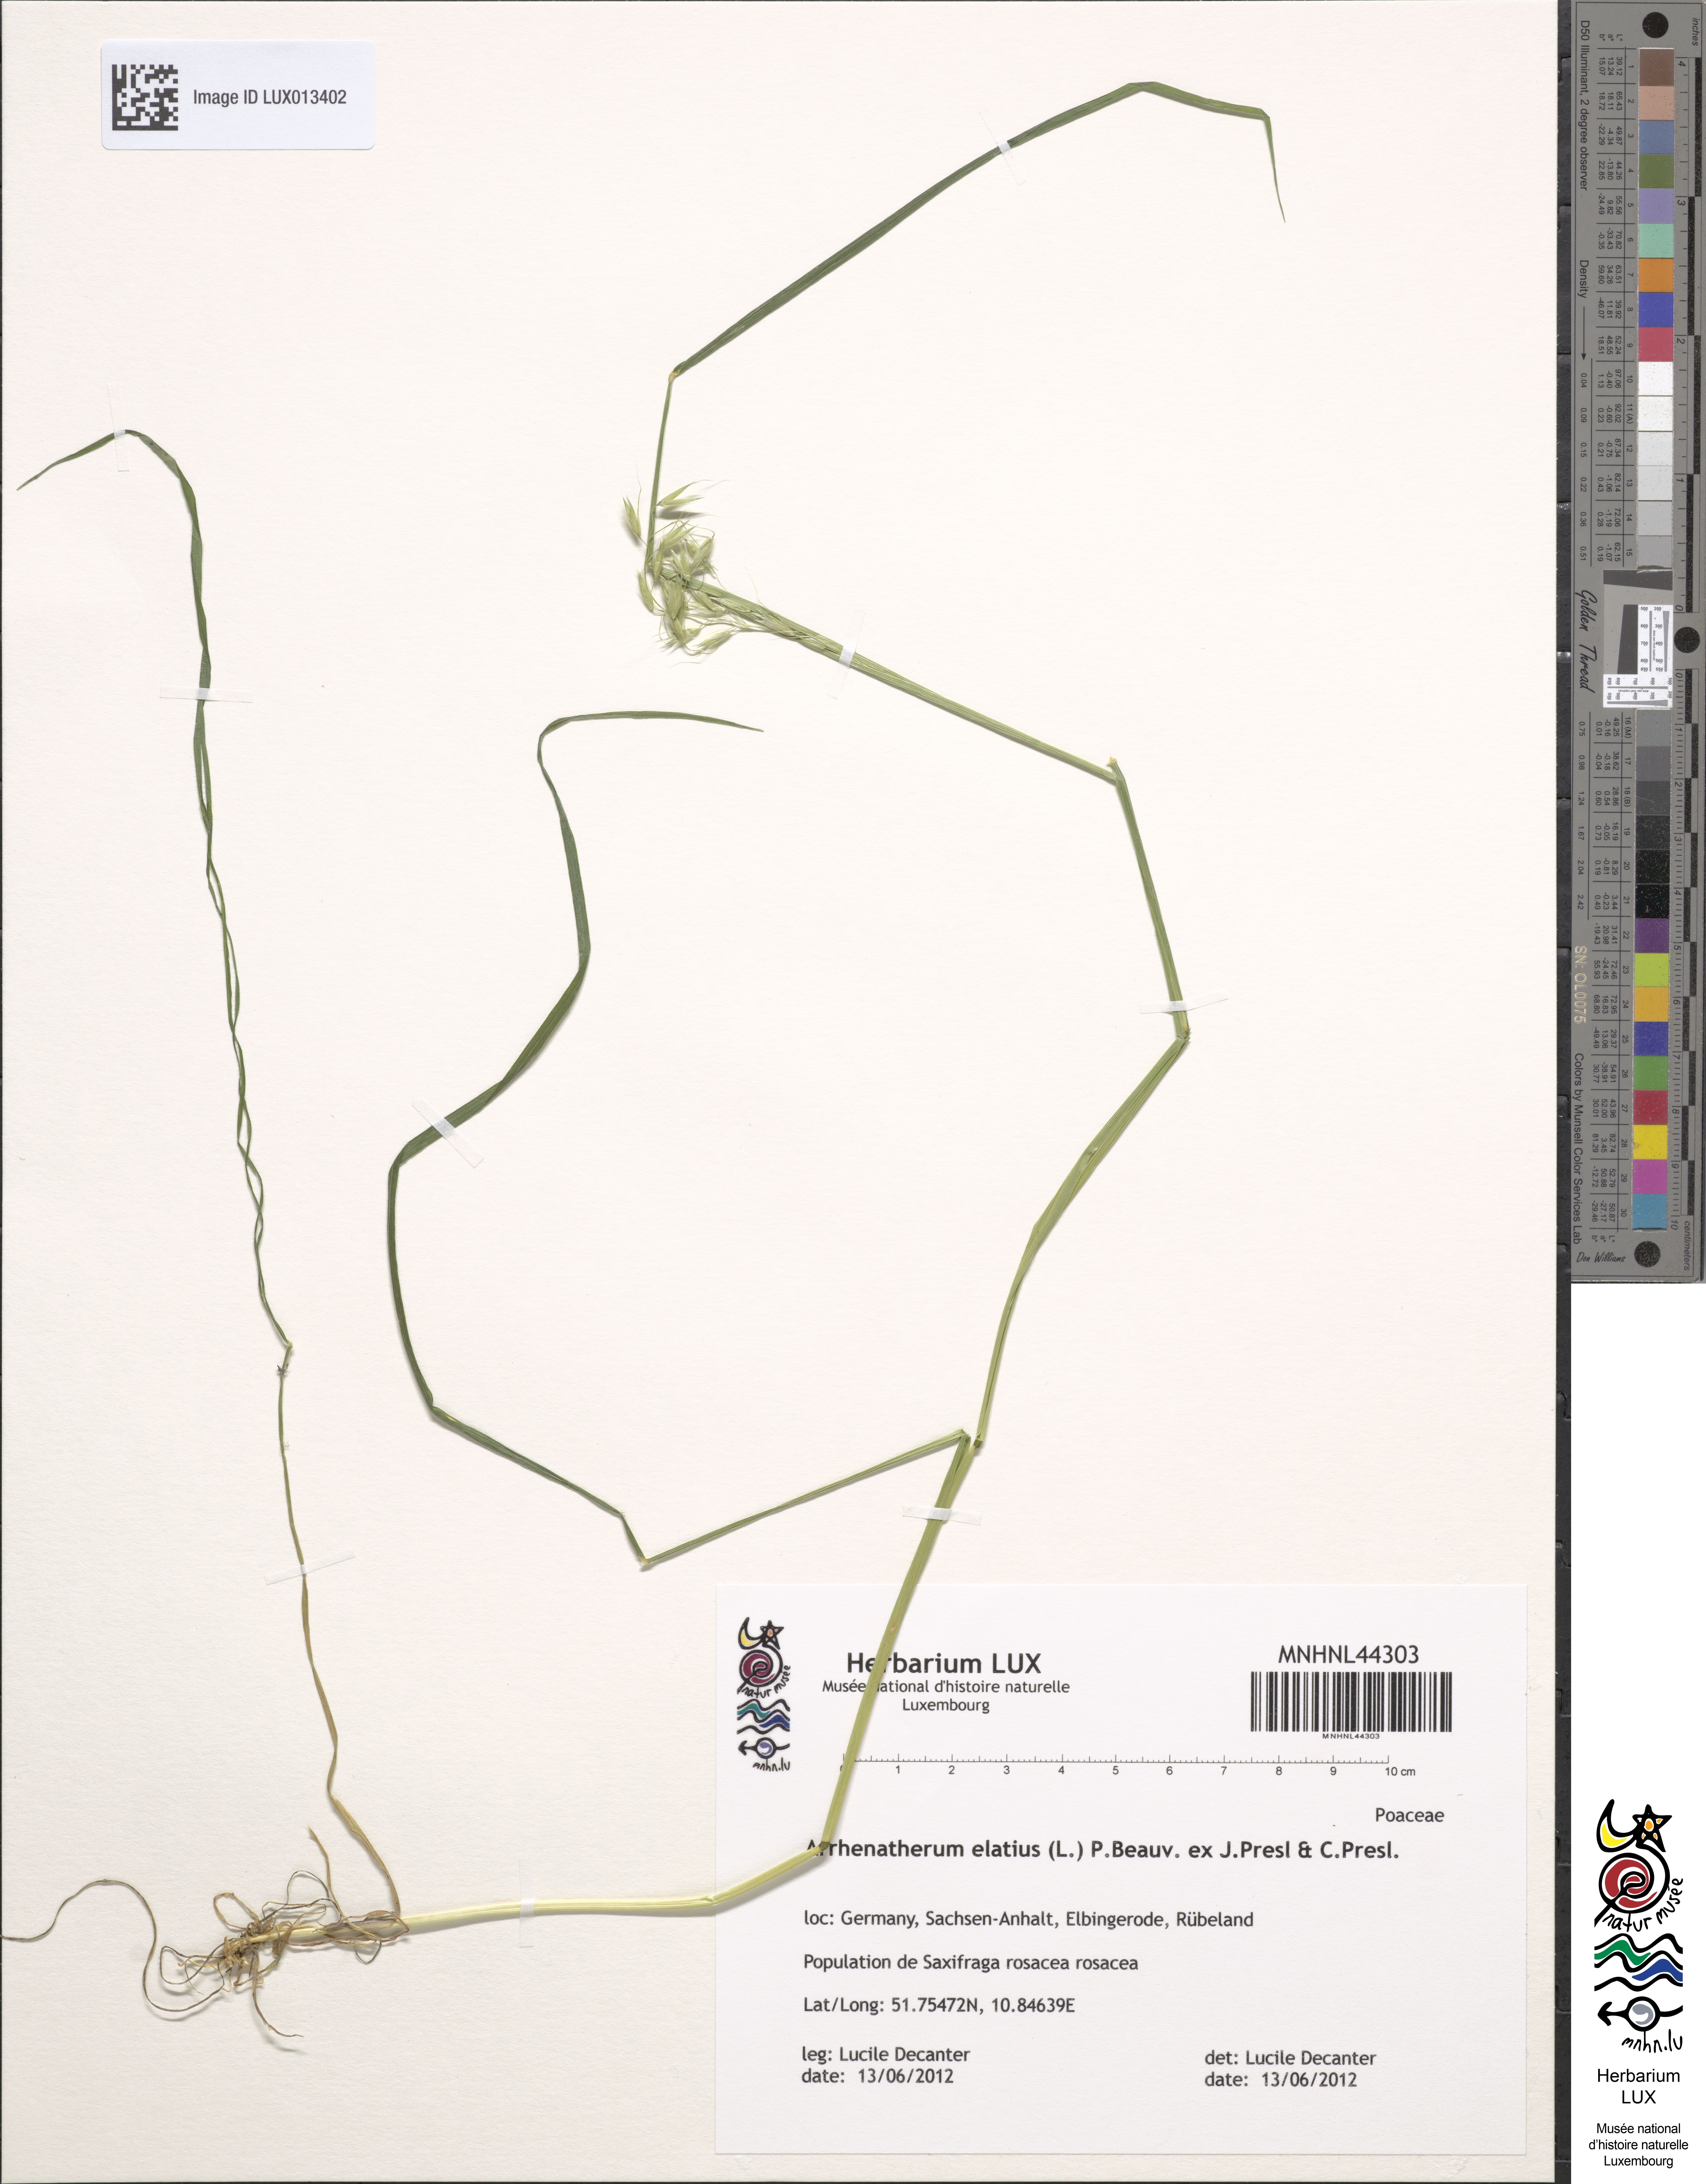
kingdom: Plantae
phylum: Tracheophyta
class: Liliopsida
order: Poales
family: Poaceae
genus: Arrhenatherum
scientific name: Arrhenatherum elatius
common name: Tall oatgrass
